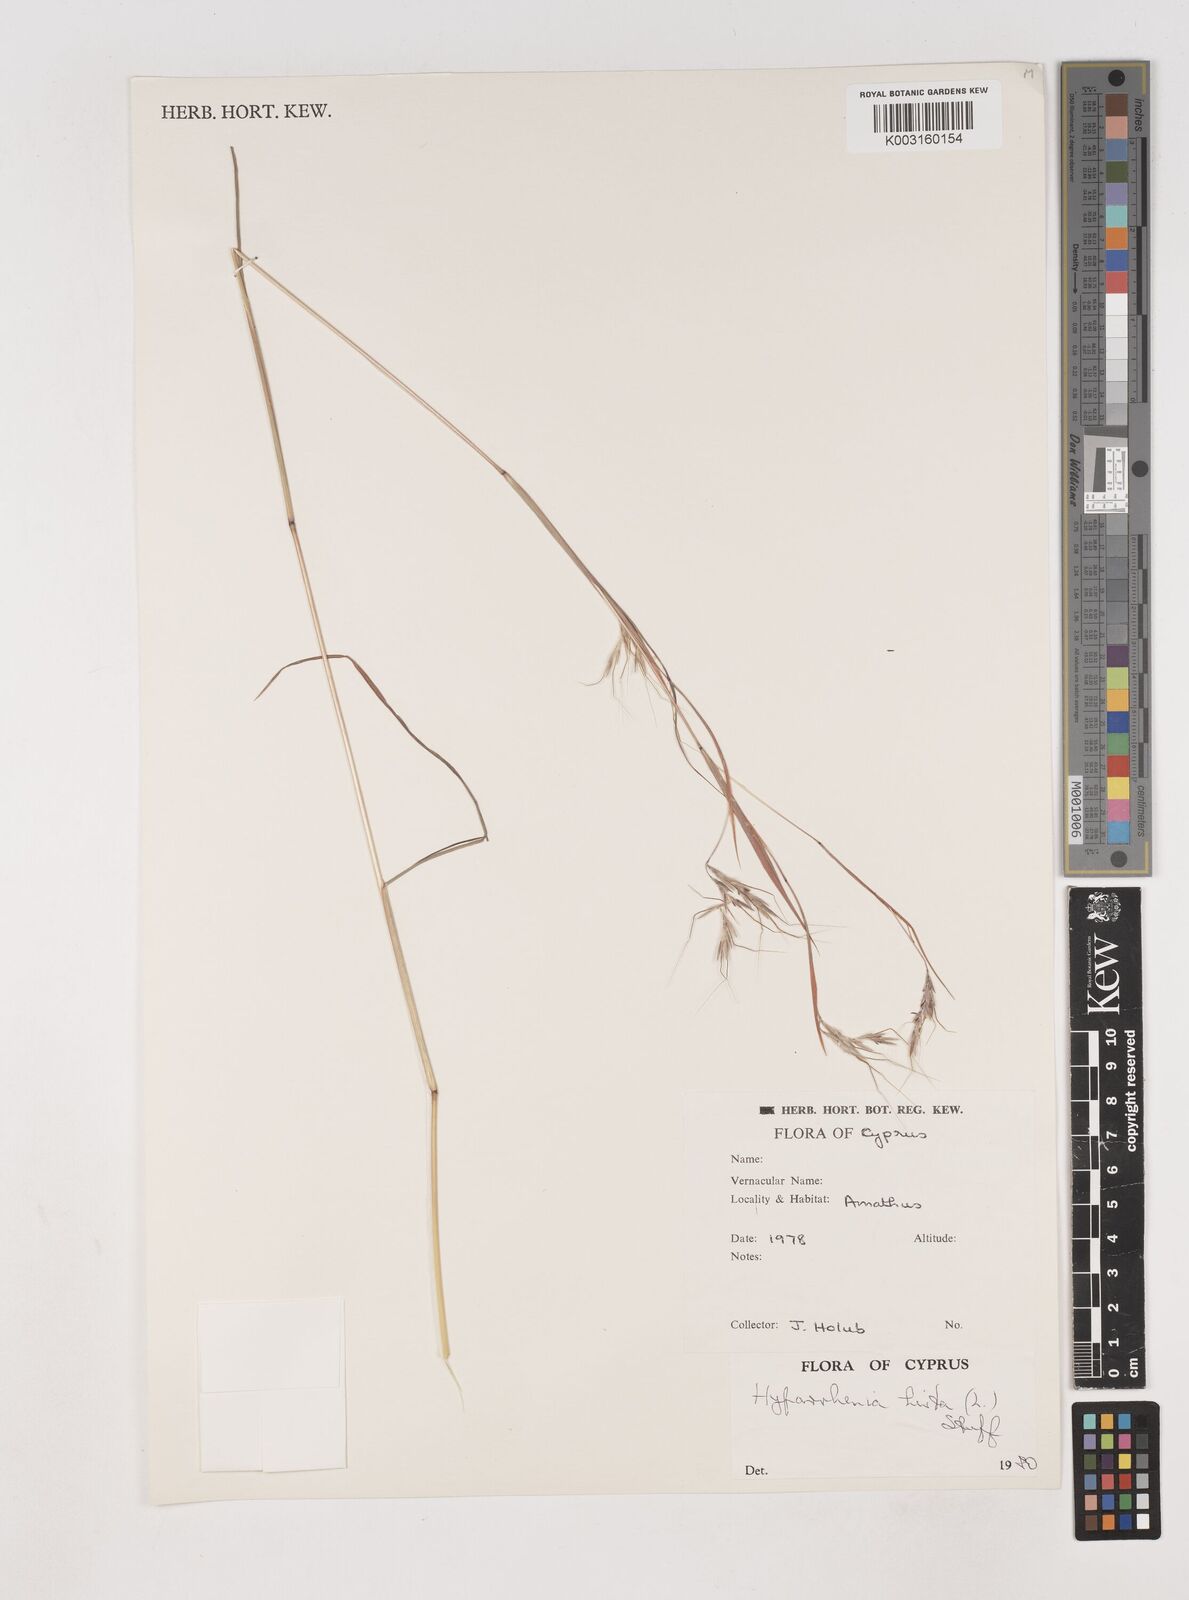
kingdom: Plantae
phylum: Tracheophyta
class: Liliopsida
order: Poales
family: Poaceae
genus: Hyparrhenia
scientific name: Hyparrhenia hirta
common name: Thatching grass
